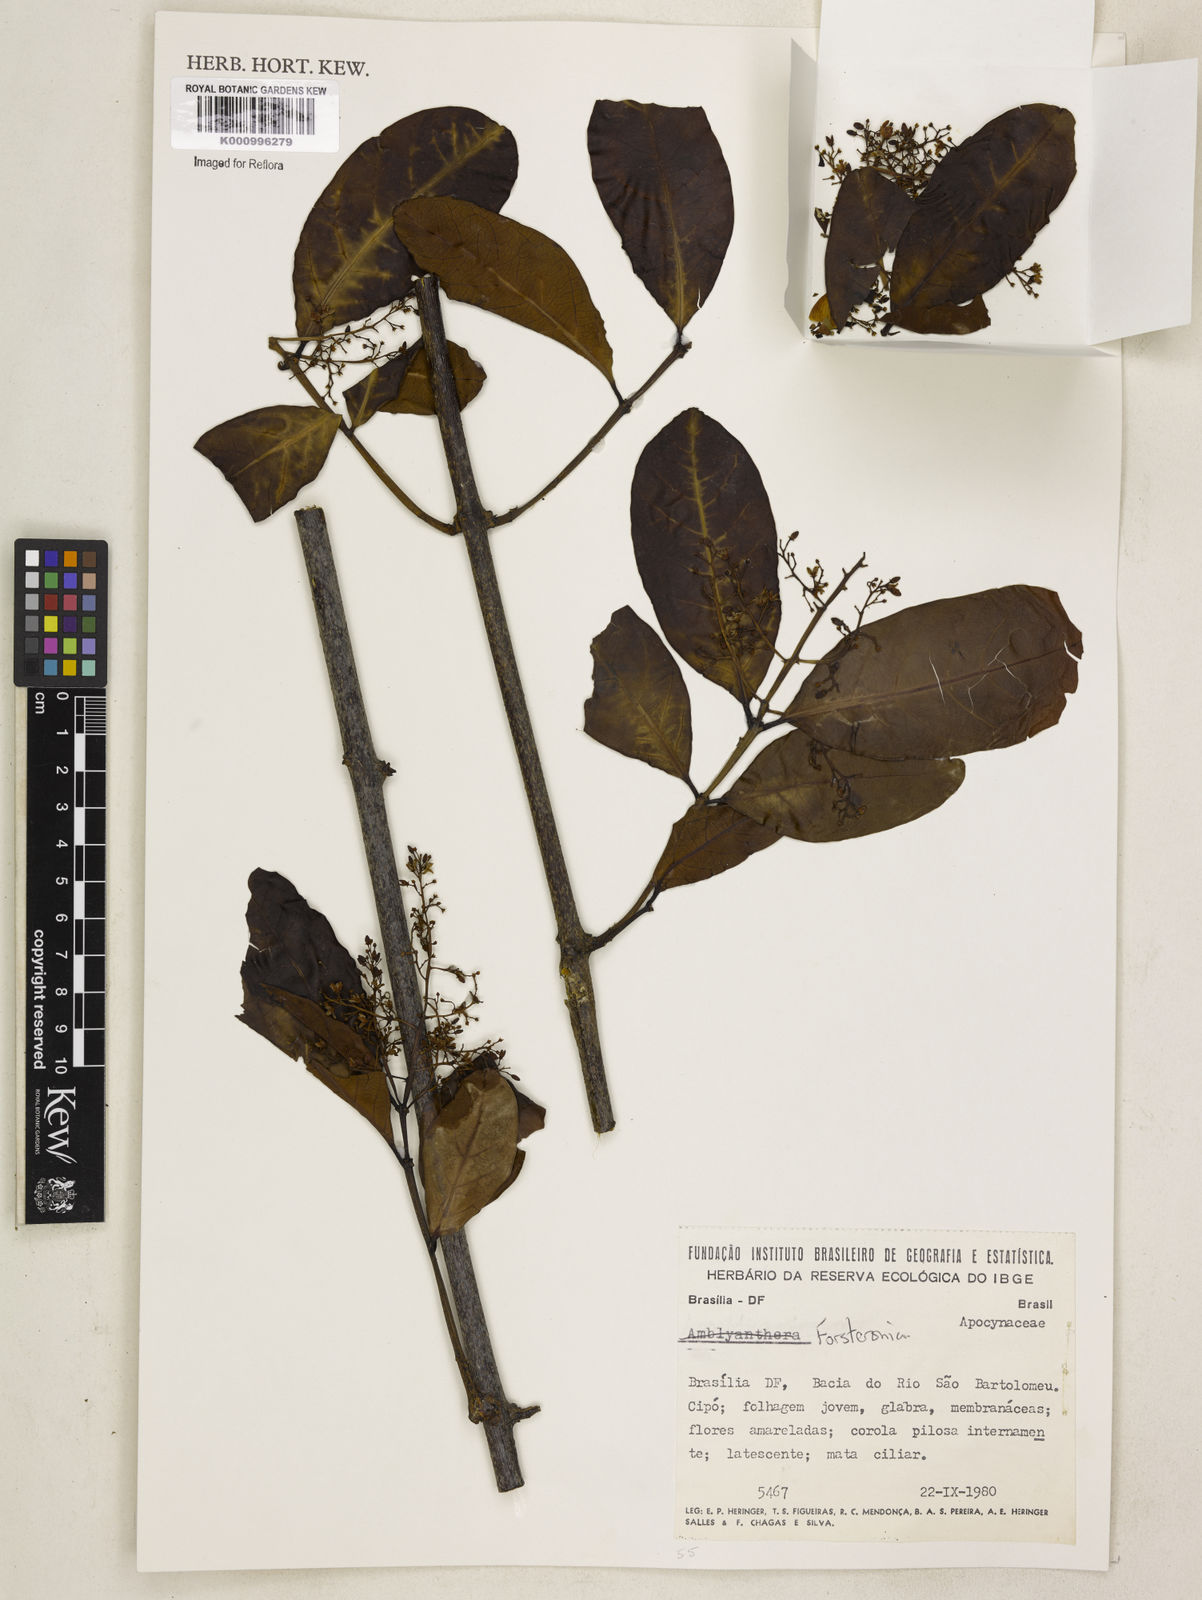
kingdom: Plantae
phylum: Tracheophyta
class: Magnoliopsida
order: Gentianales
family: Apocynaceae
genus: Forsteronia
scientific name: Forsteronia
